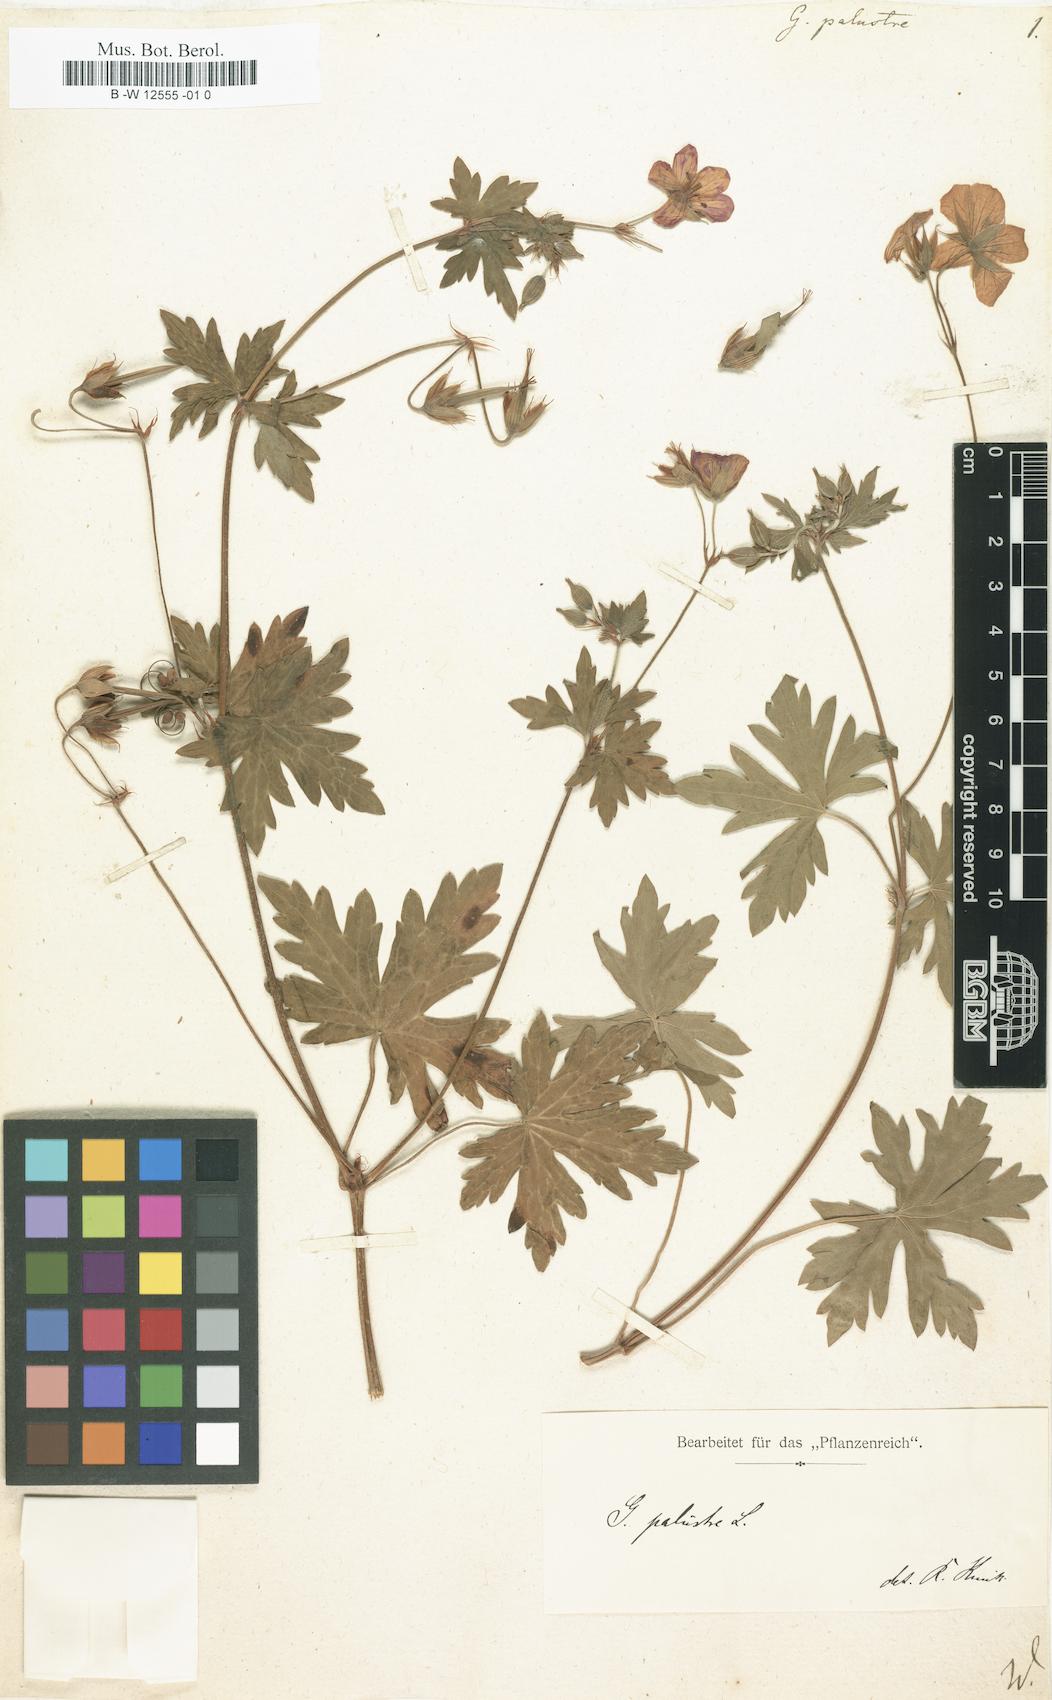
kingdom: Plantae
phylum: Tracheophyta
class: Magnoliopsida
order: Geraniales
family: Geraniaceae
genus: Geranium
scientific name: Geranium palustre
